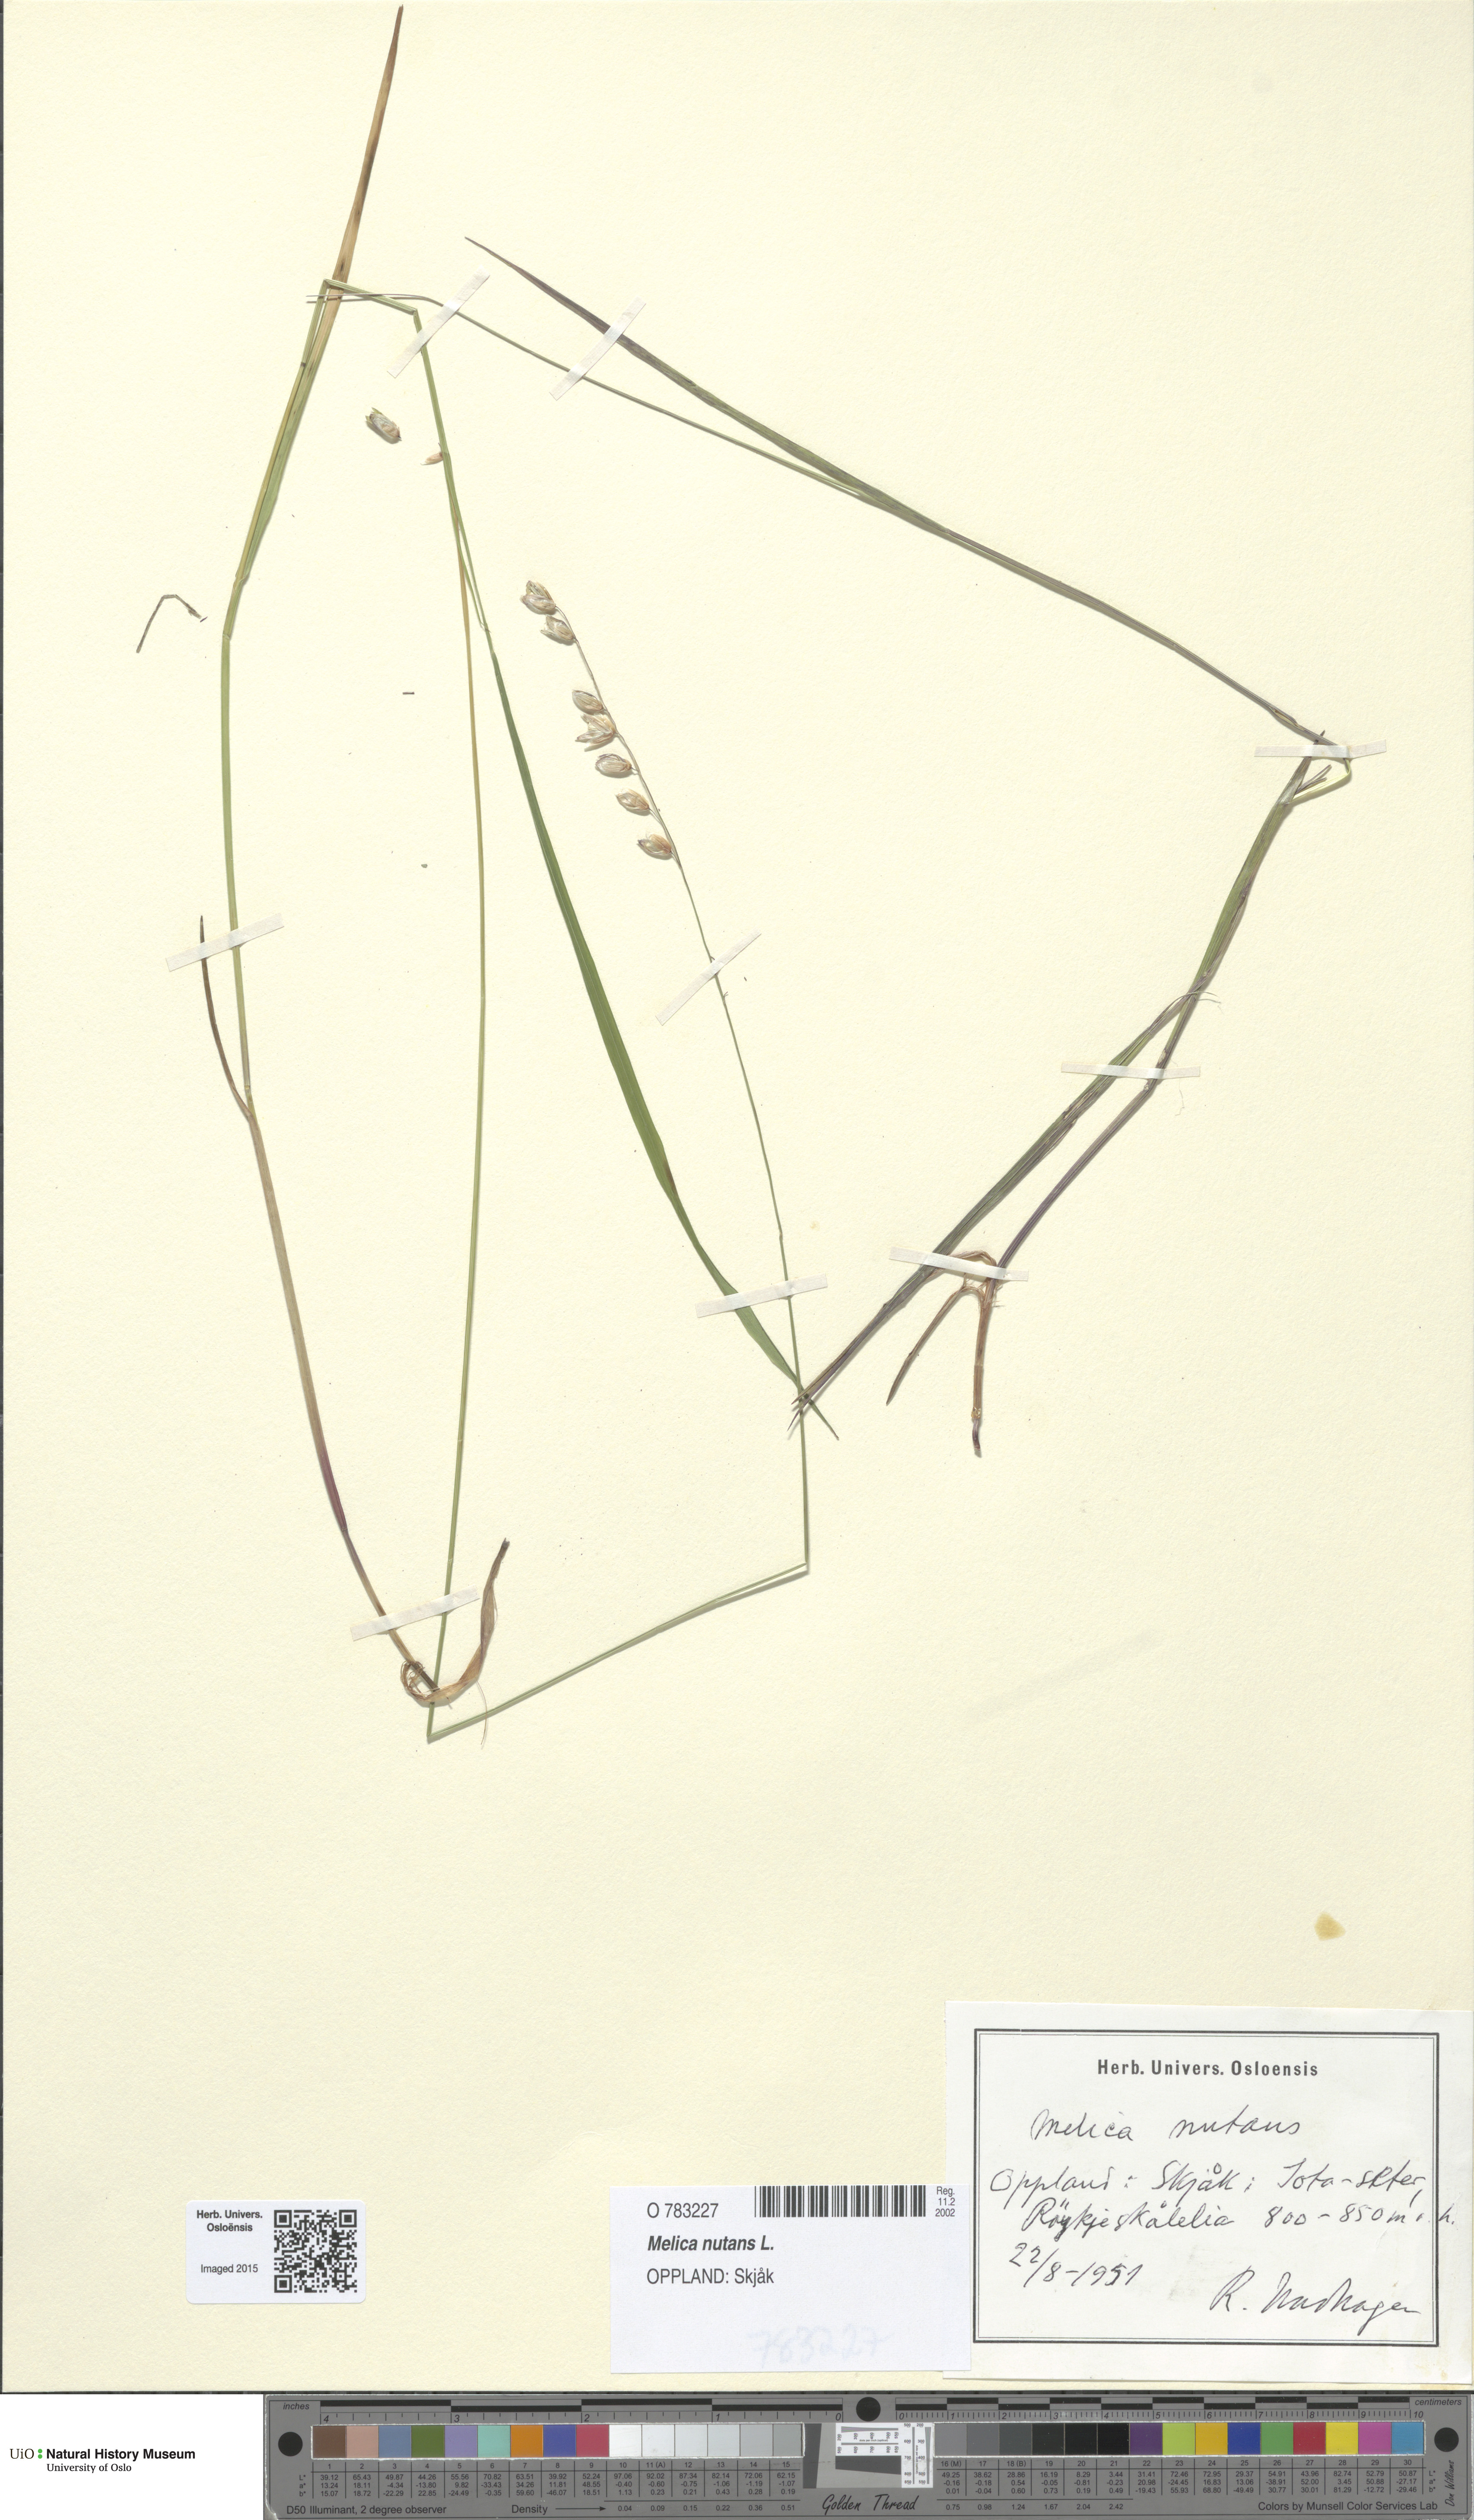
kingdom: Plantae
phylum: Tracheophyta
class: Liliopsida
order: Poales
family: Poaceae
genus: Melica
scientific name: Melica nutans
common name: Mountain melick
